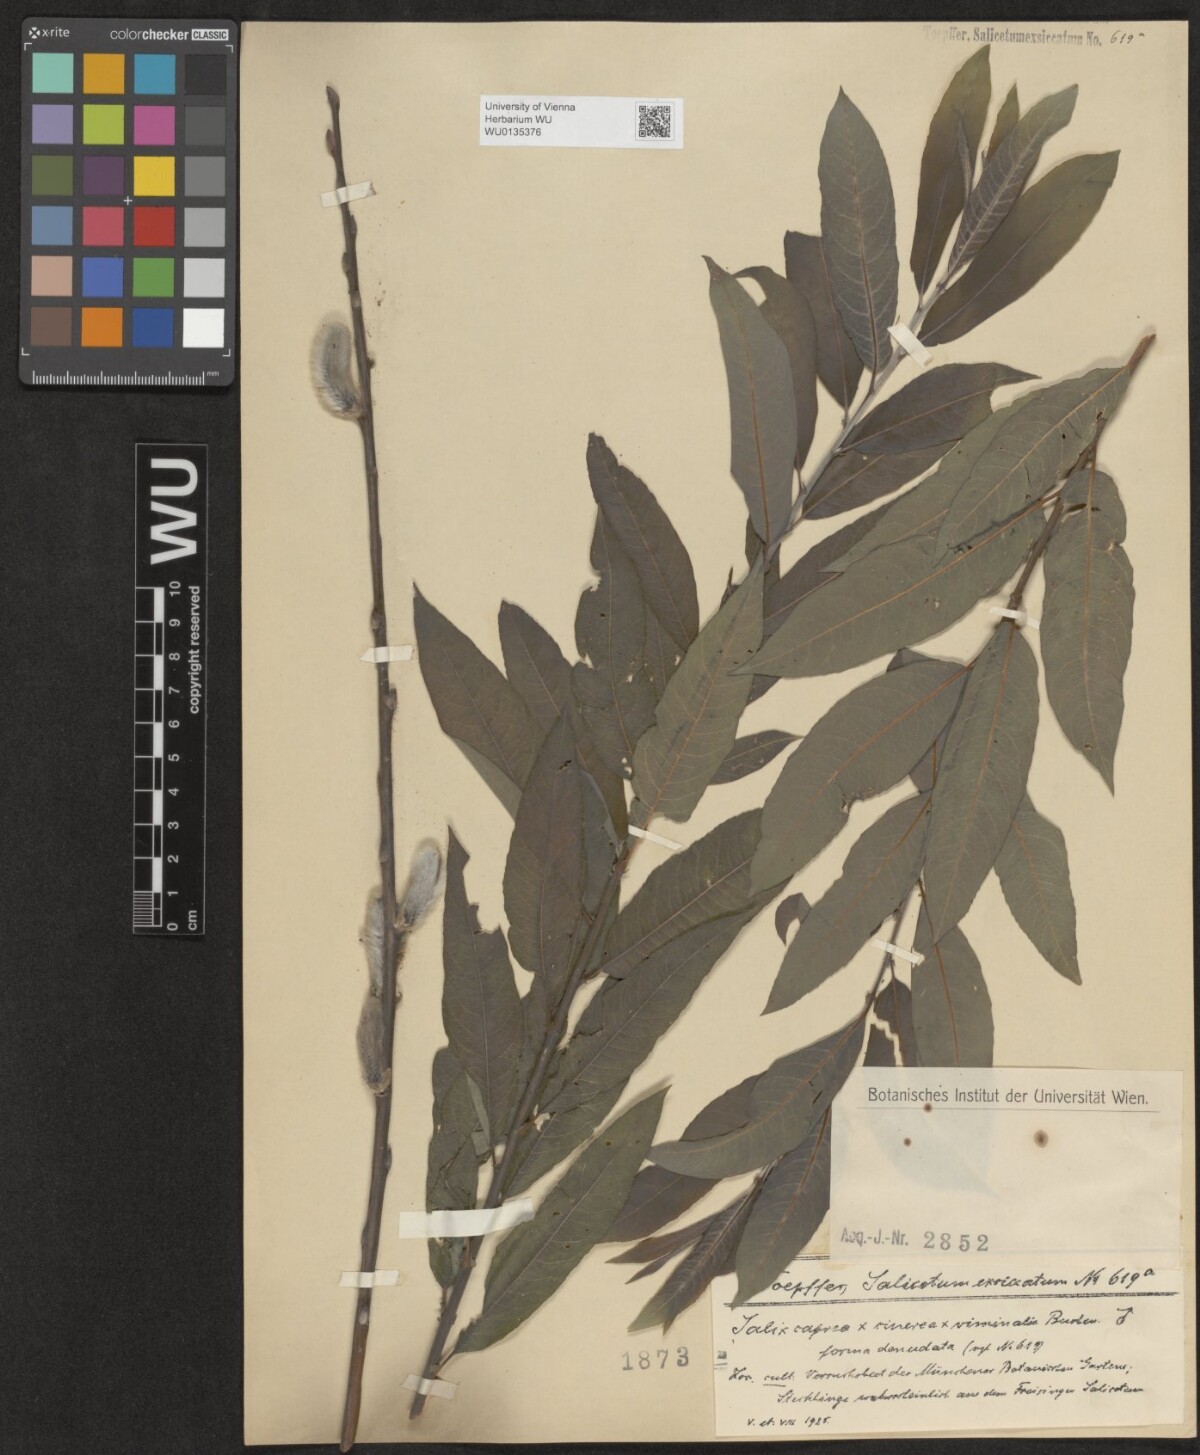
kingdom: Plantae
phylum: Tracheophyta
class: Magnoliopsida
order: Malpighiales
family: Salicaceae
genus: Salix
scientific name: Salix
